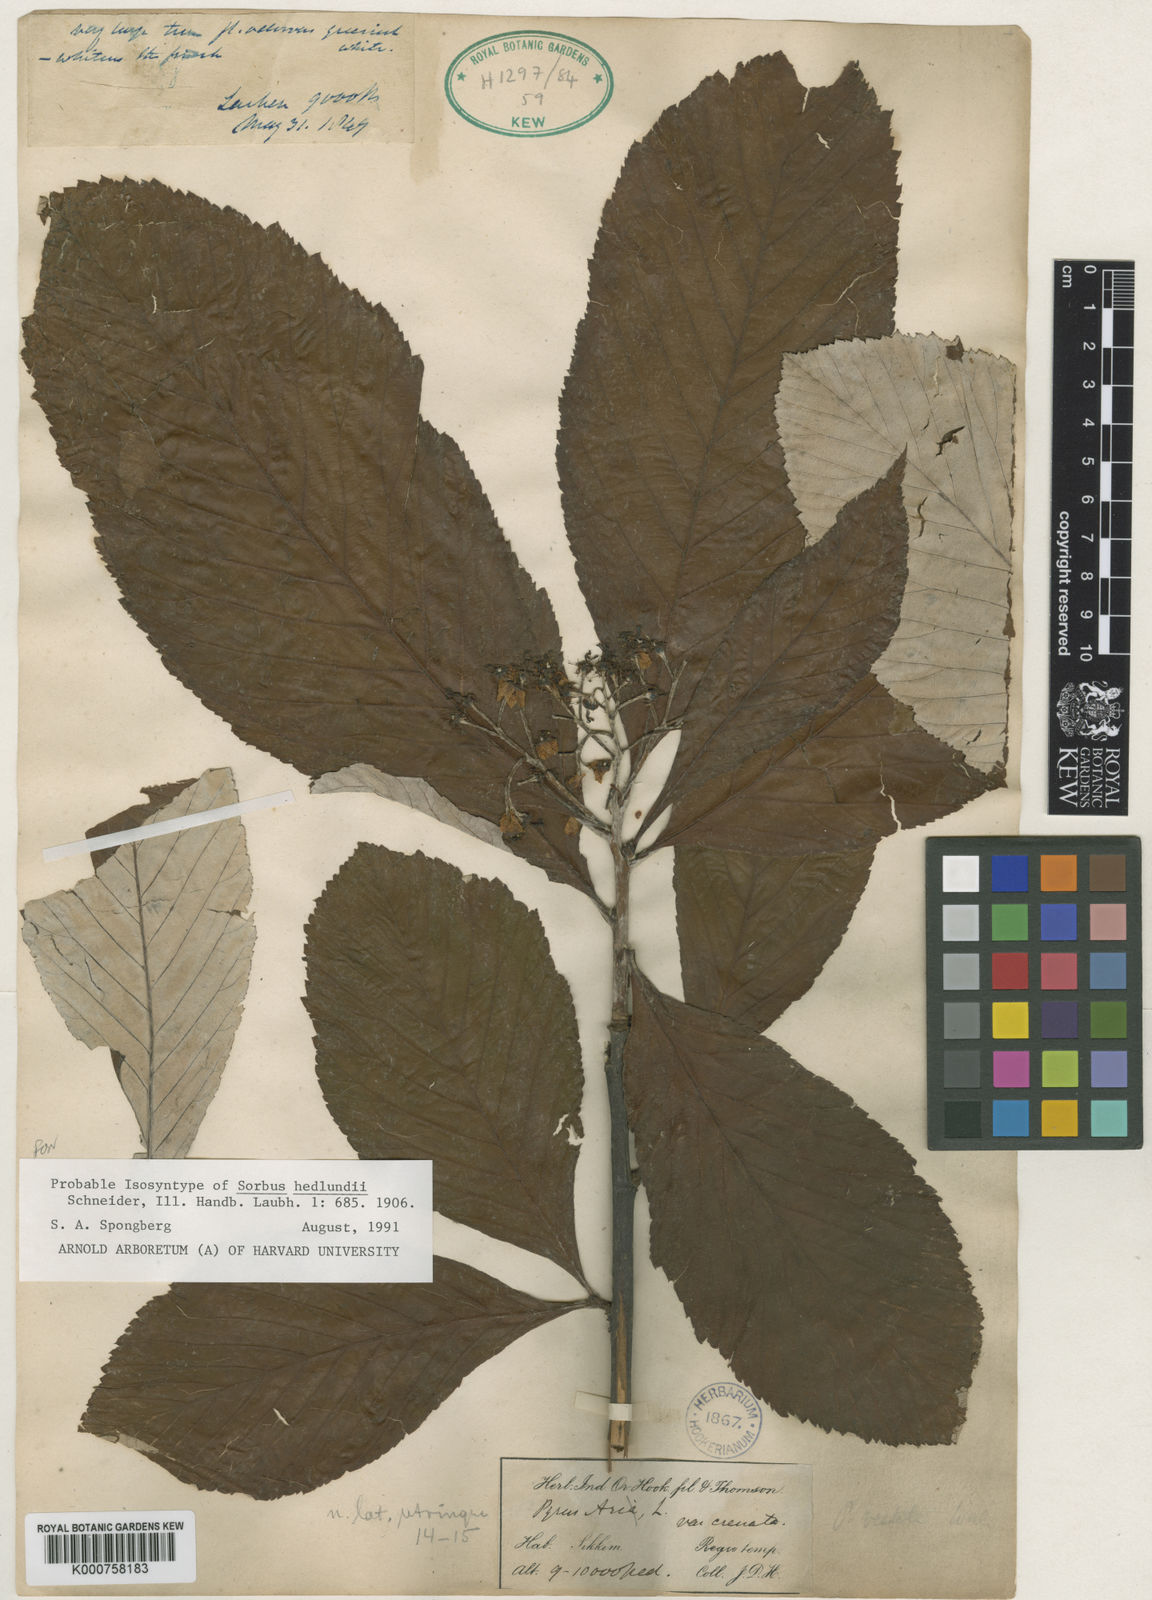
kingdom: Plantae
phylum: Tracheophyta
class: Magnoliopsida
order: Rosales
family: Rosaceae
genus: Sorbus
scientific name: Sorbus hedlundii
